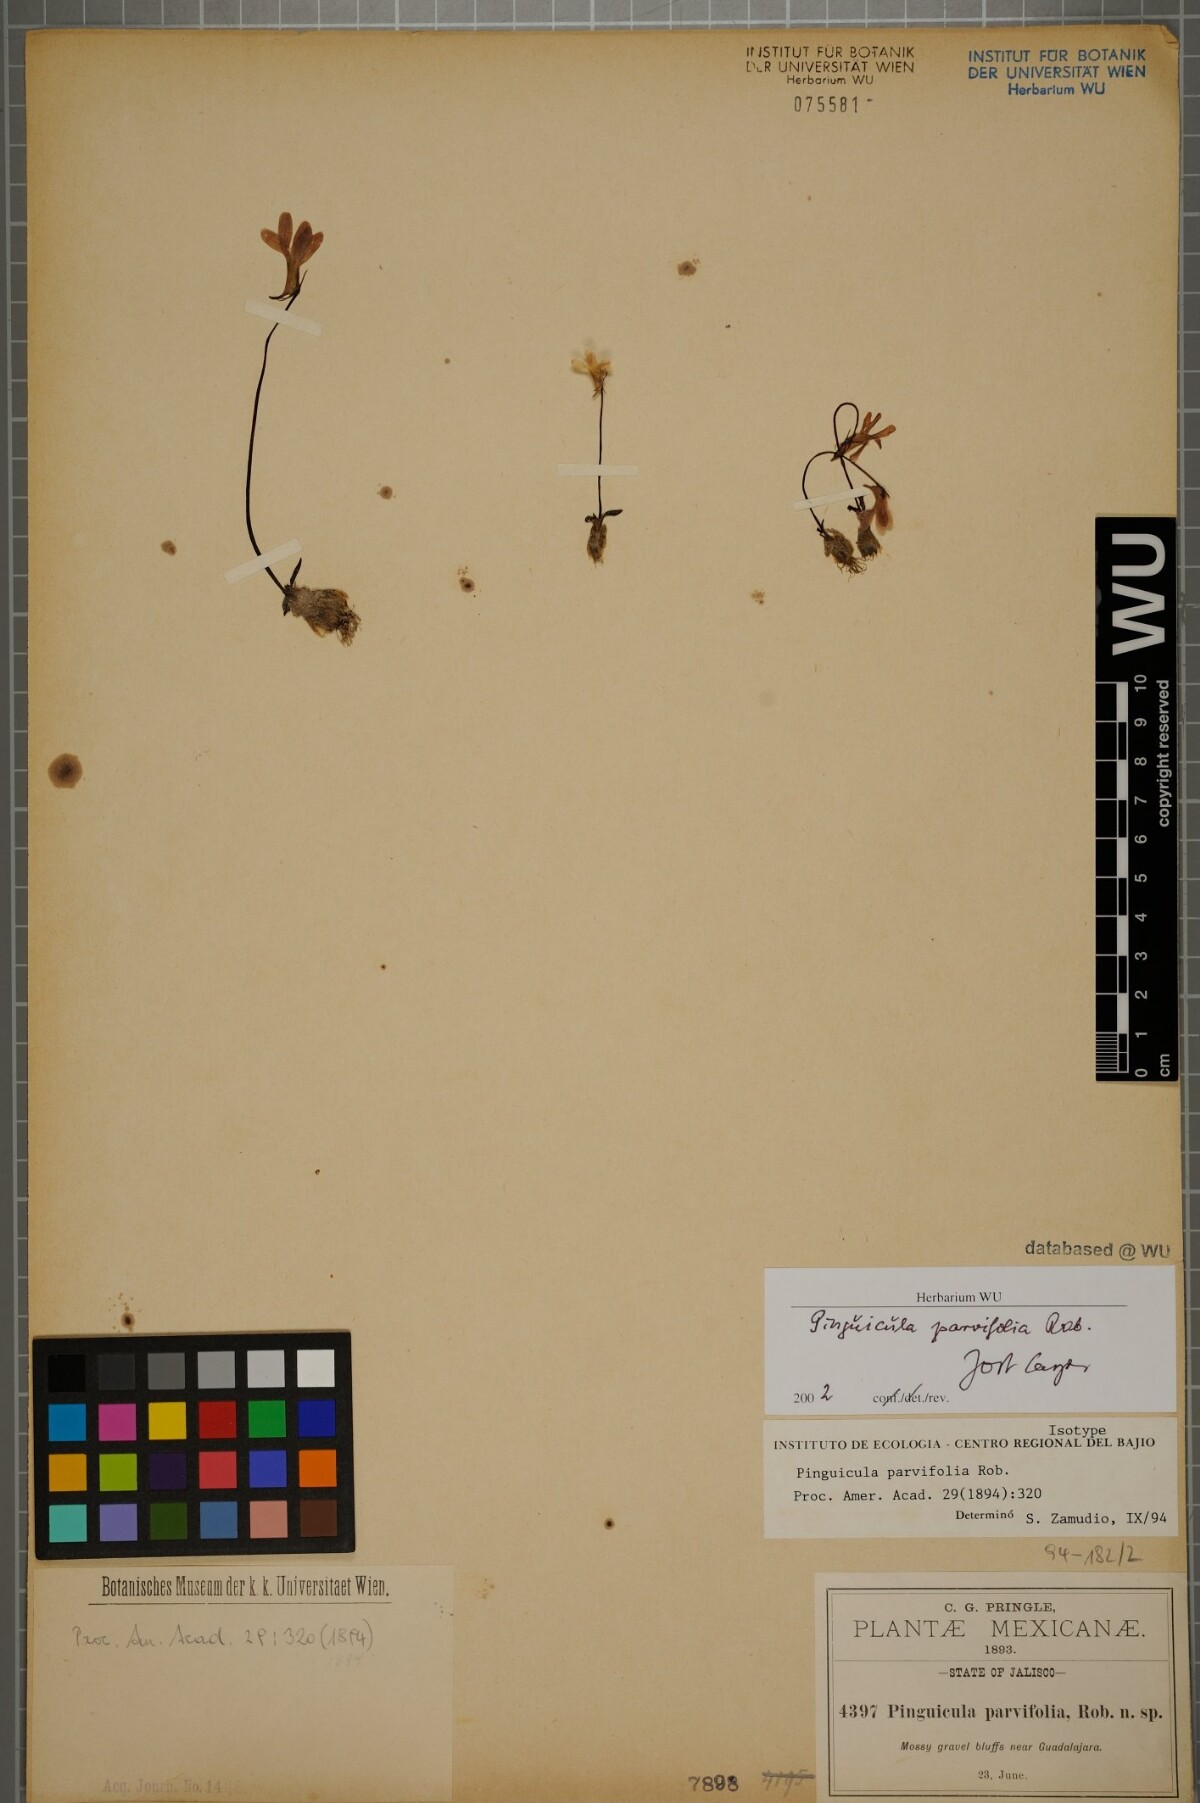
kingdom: Plantae
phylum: Tracheophyta
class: Magnoliopsida
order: Lamiales
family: Lentibulariaceae
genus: Pinguicula
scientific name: Pinguicula parvifolia
